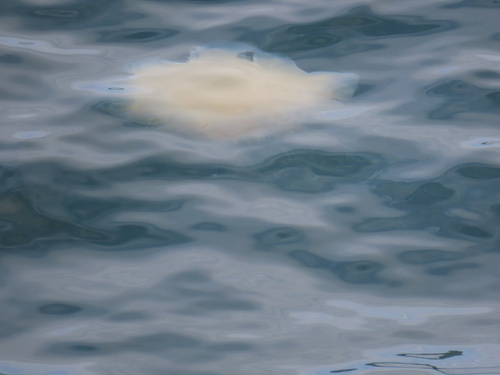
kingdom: Animalia
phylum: Cnidaria
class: Scyphozoa
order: Semaeostomeae
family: Cyaneidae
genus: Cyanea
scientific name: Cyanea
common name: Lion's Mane Jellyfish
